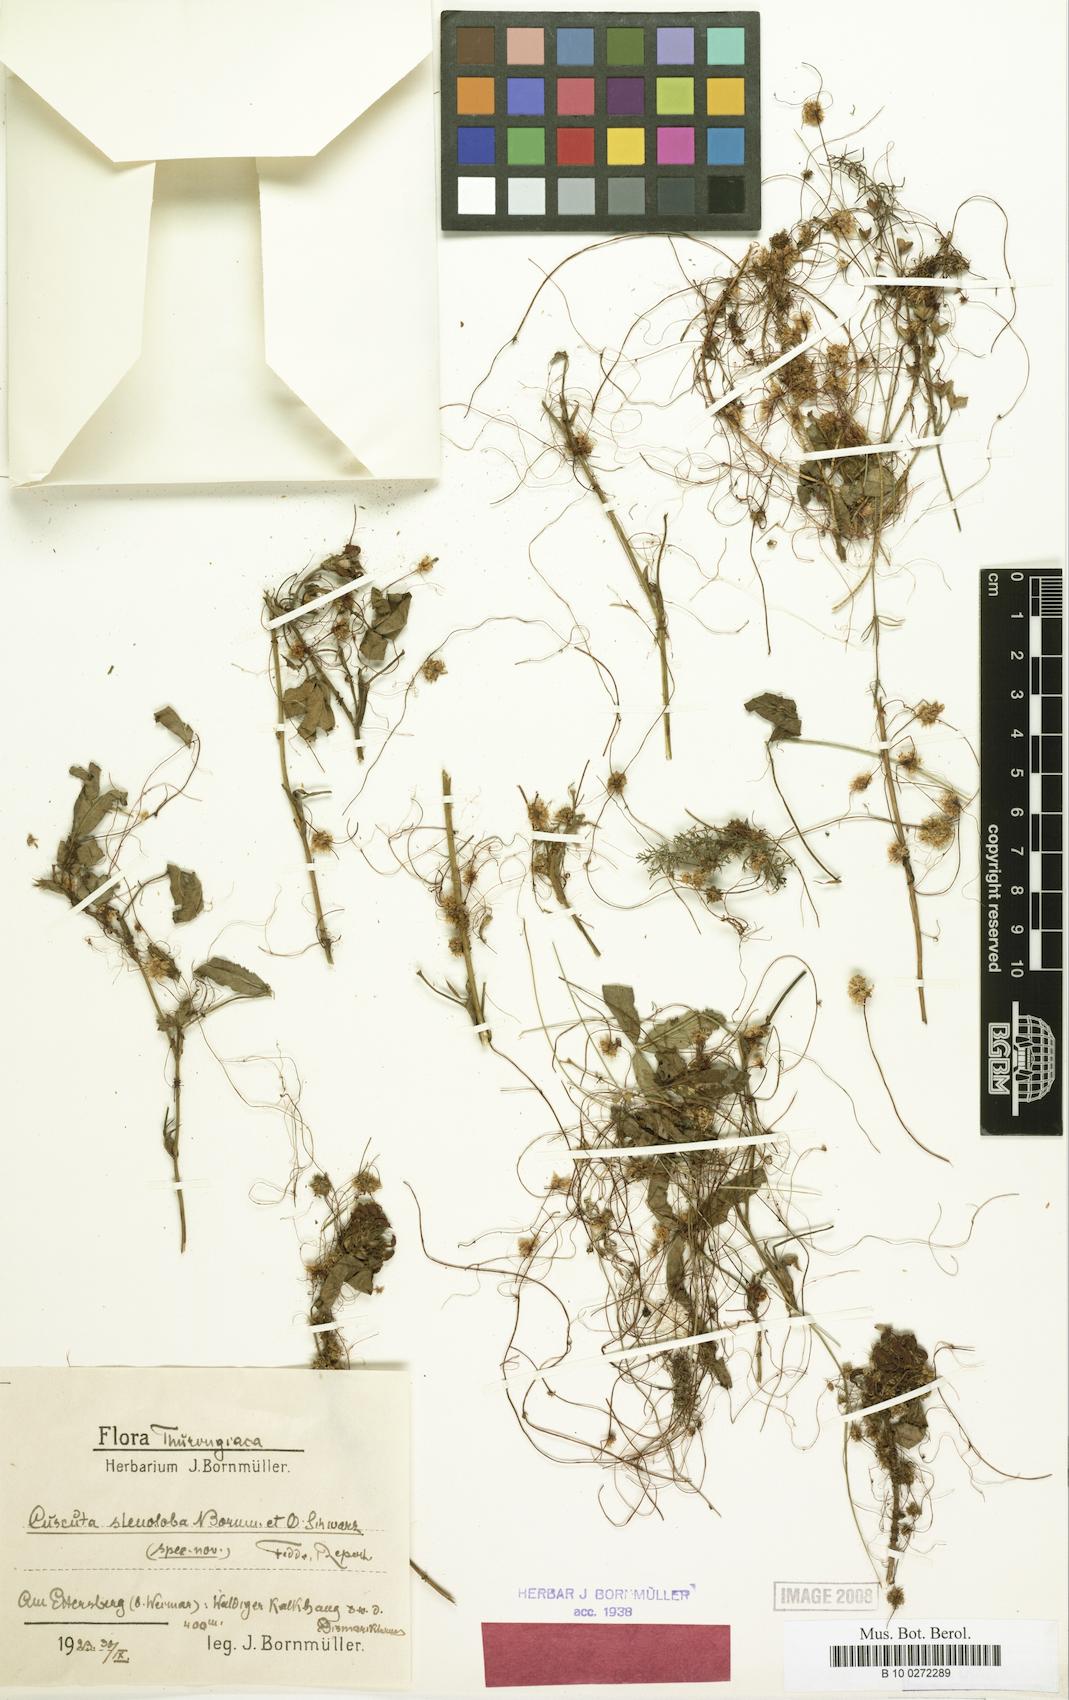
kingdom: Plantae
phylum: Tracheophyta
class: Magnoliopsida
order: Solanales
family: Convolvulaceae
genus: Cuscuta
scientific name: Cuscuta epithymum
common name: Clover dodder
